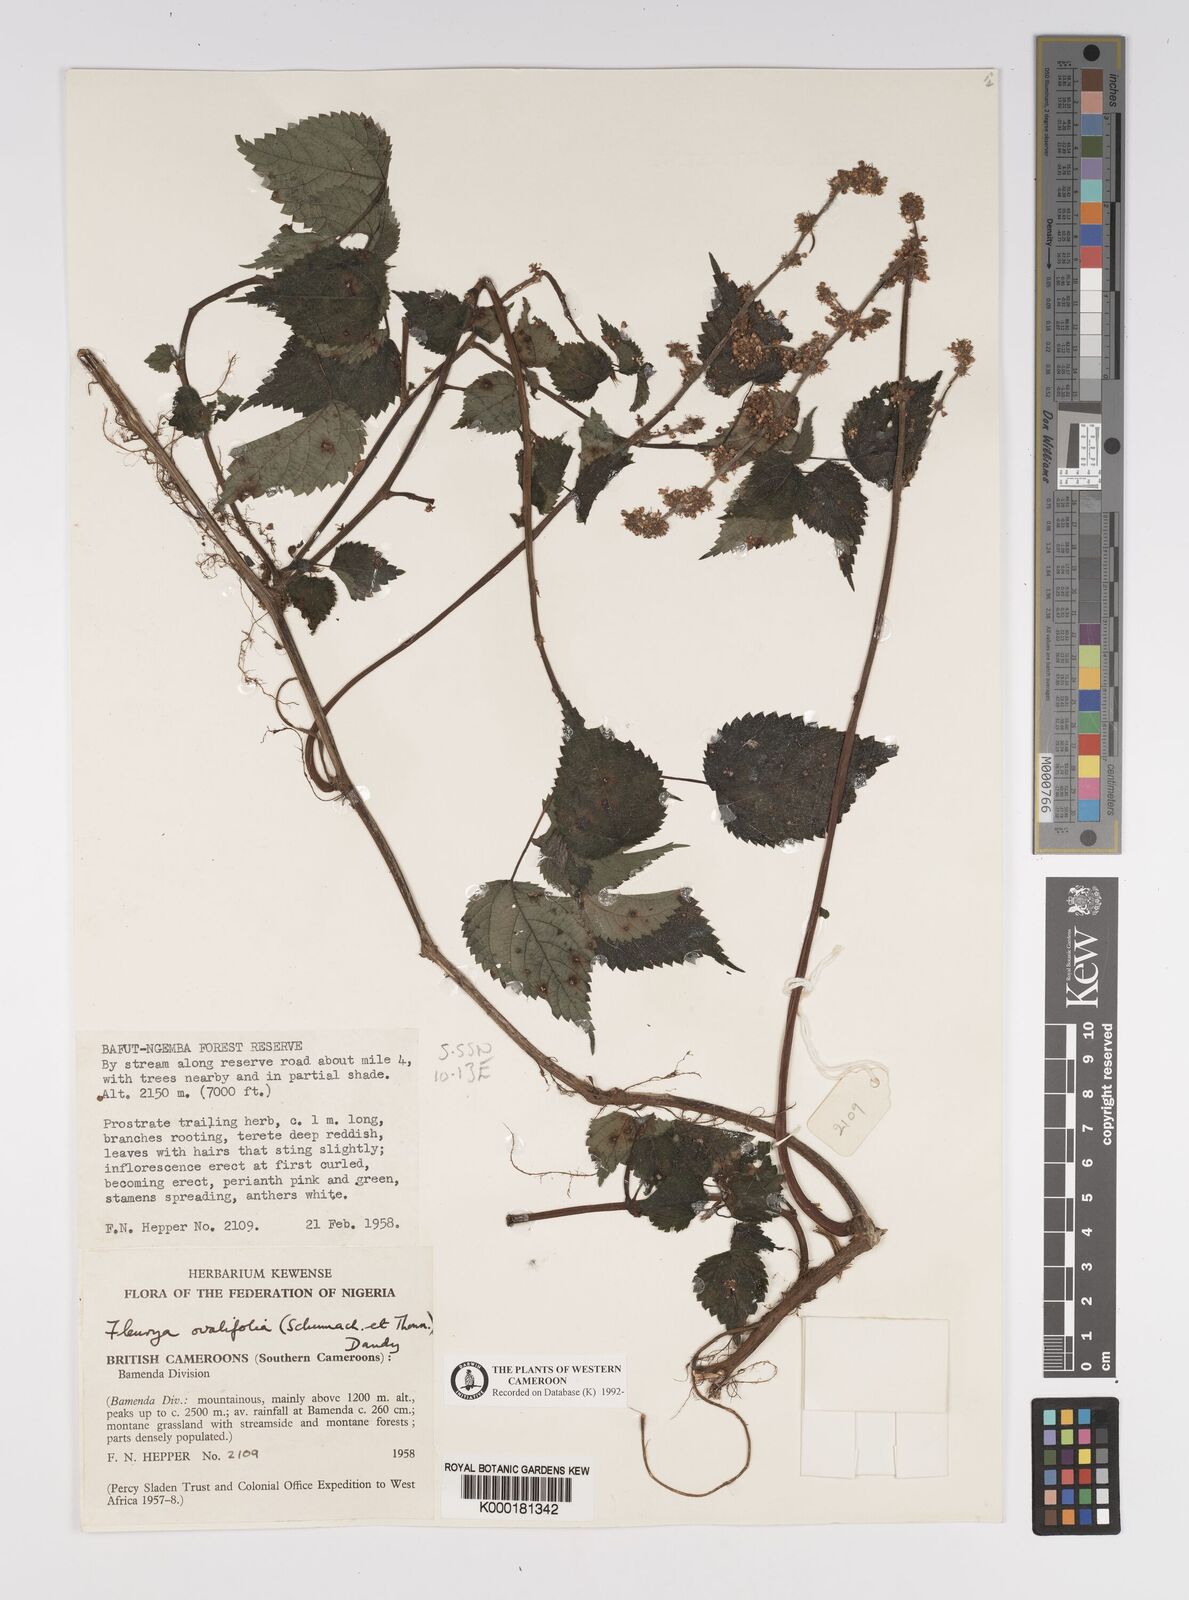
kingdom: Plantae
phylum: Tracheophyta
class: Magnoliopsida
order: Rosales
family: Urticaceae
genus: Laportea
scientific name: Laportea ovalifolia
